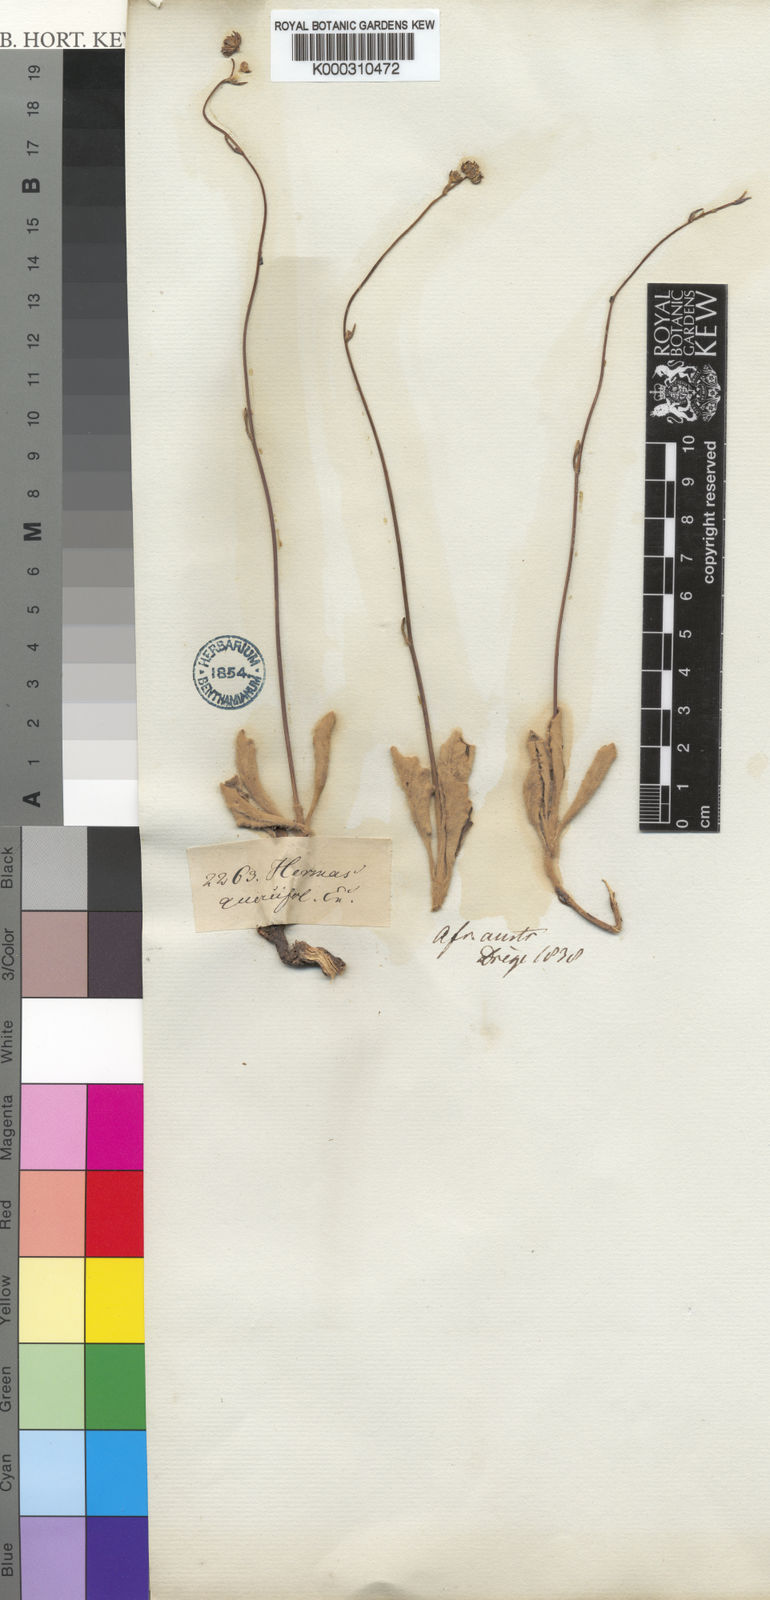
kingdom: Plantae
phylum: Tracheophyta
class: Magnoliopsida
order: Apiales
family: Apiaceae
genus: Hermas
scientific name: Hermas quercifolia
